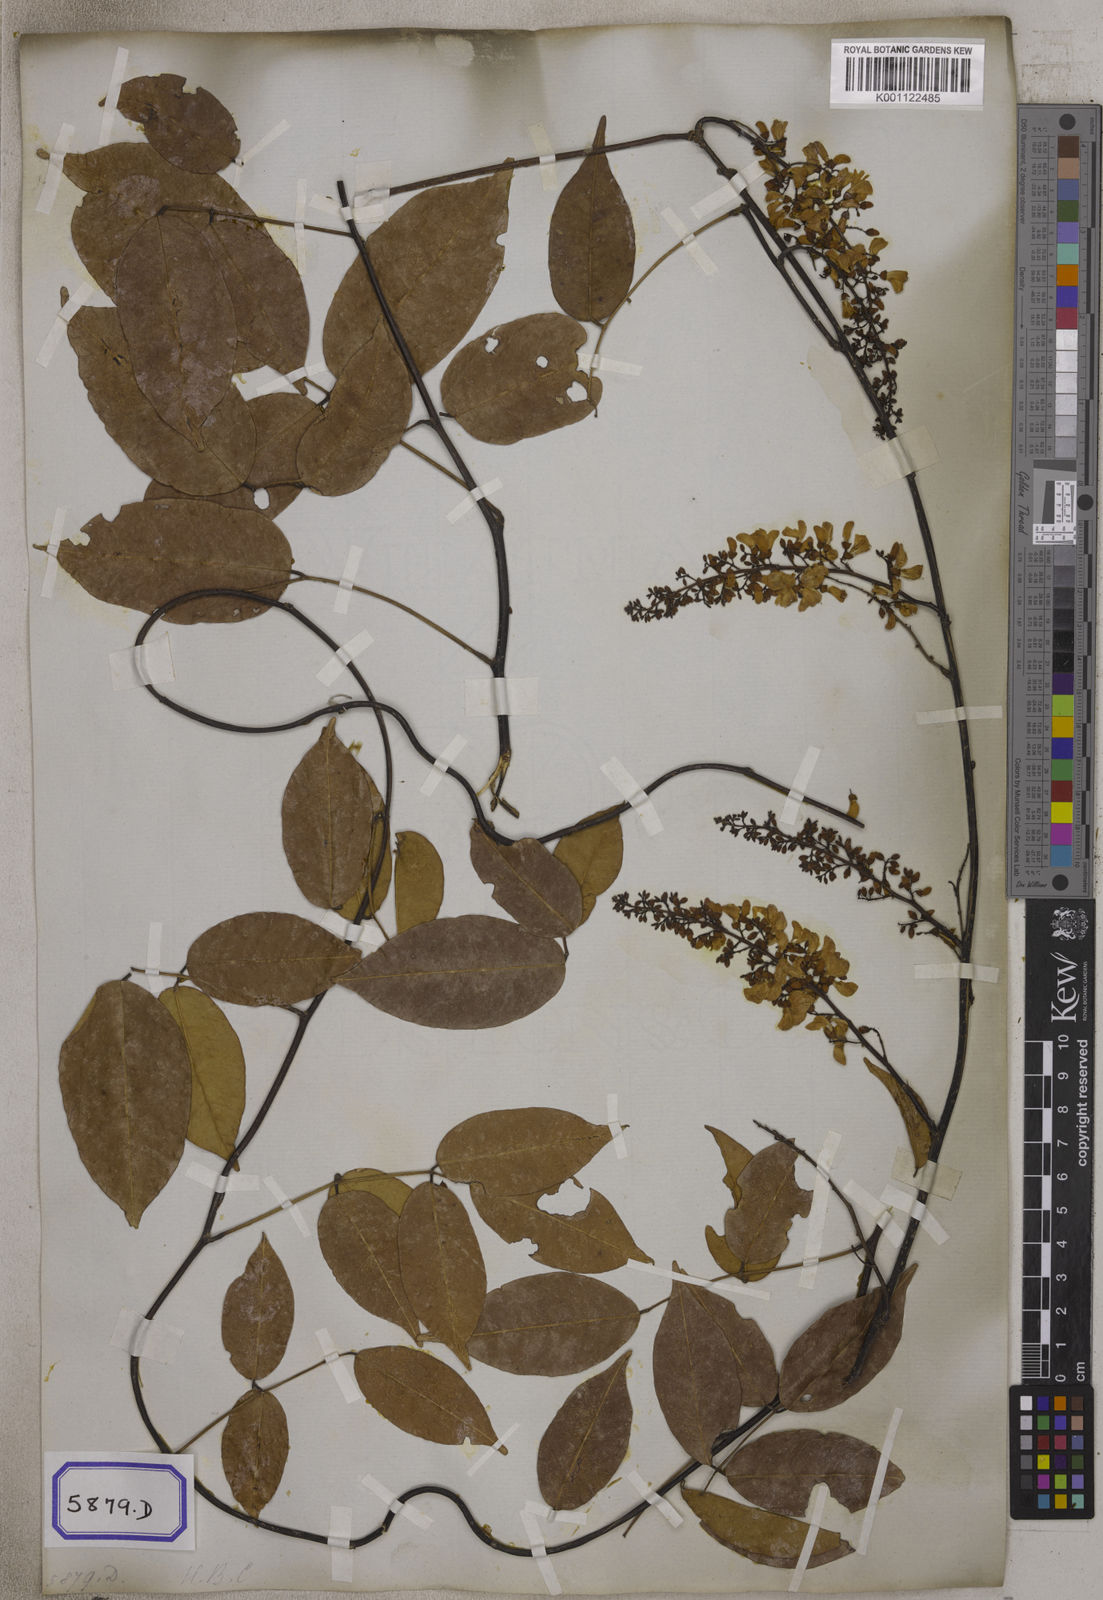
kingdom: Plantae
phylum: Tracheophyta
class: Magnoliopsida
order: Fabales
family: Fabaceae
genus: Derris
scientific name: Derris trifoliata
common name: Three-leaf derris
